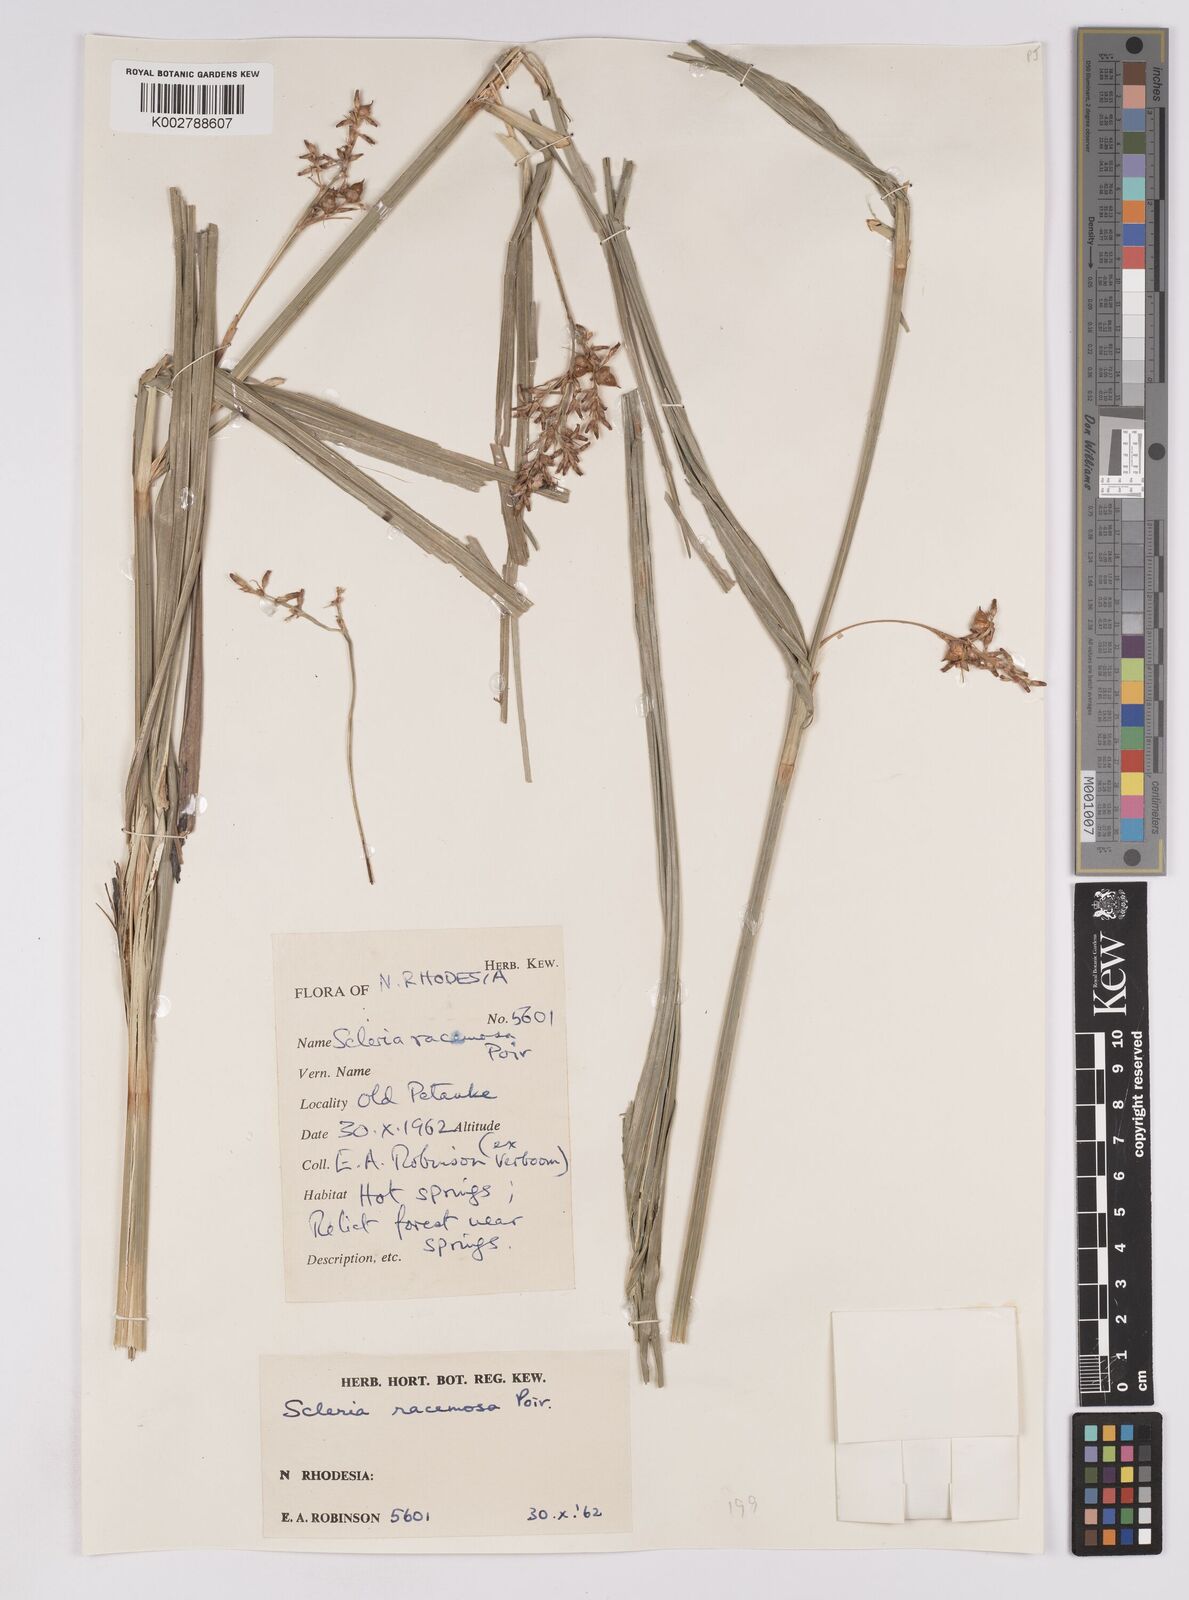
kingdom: Plantae
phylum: Tracheophyta
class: Liliopsida
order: Poales
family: Cyperaceae
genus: Scleria
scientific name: Scleria racemosa
